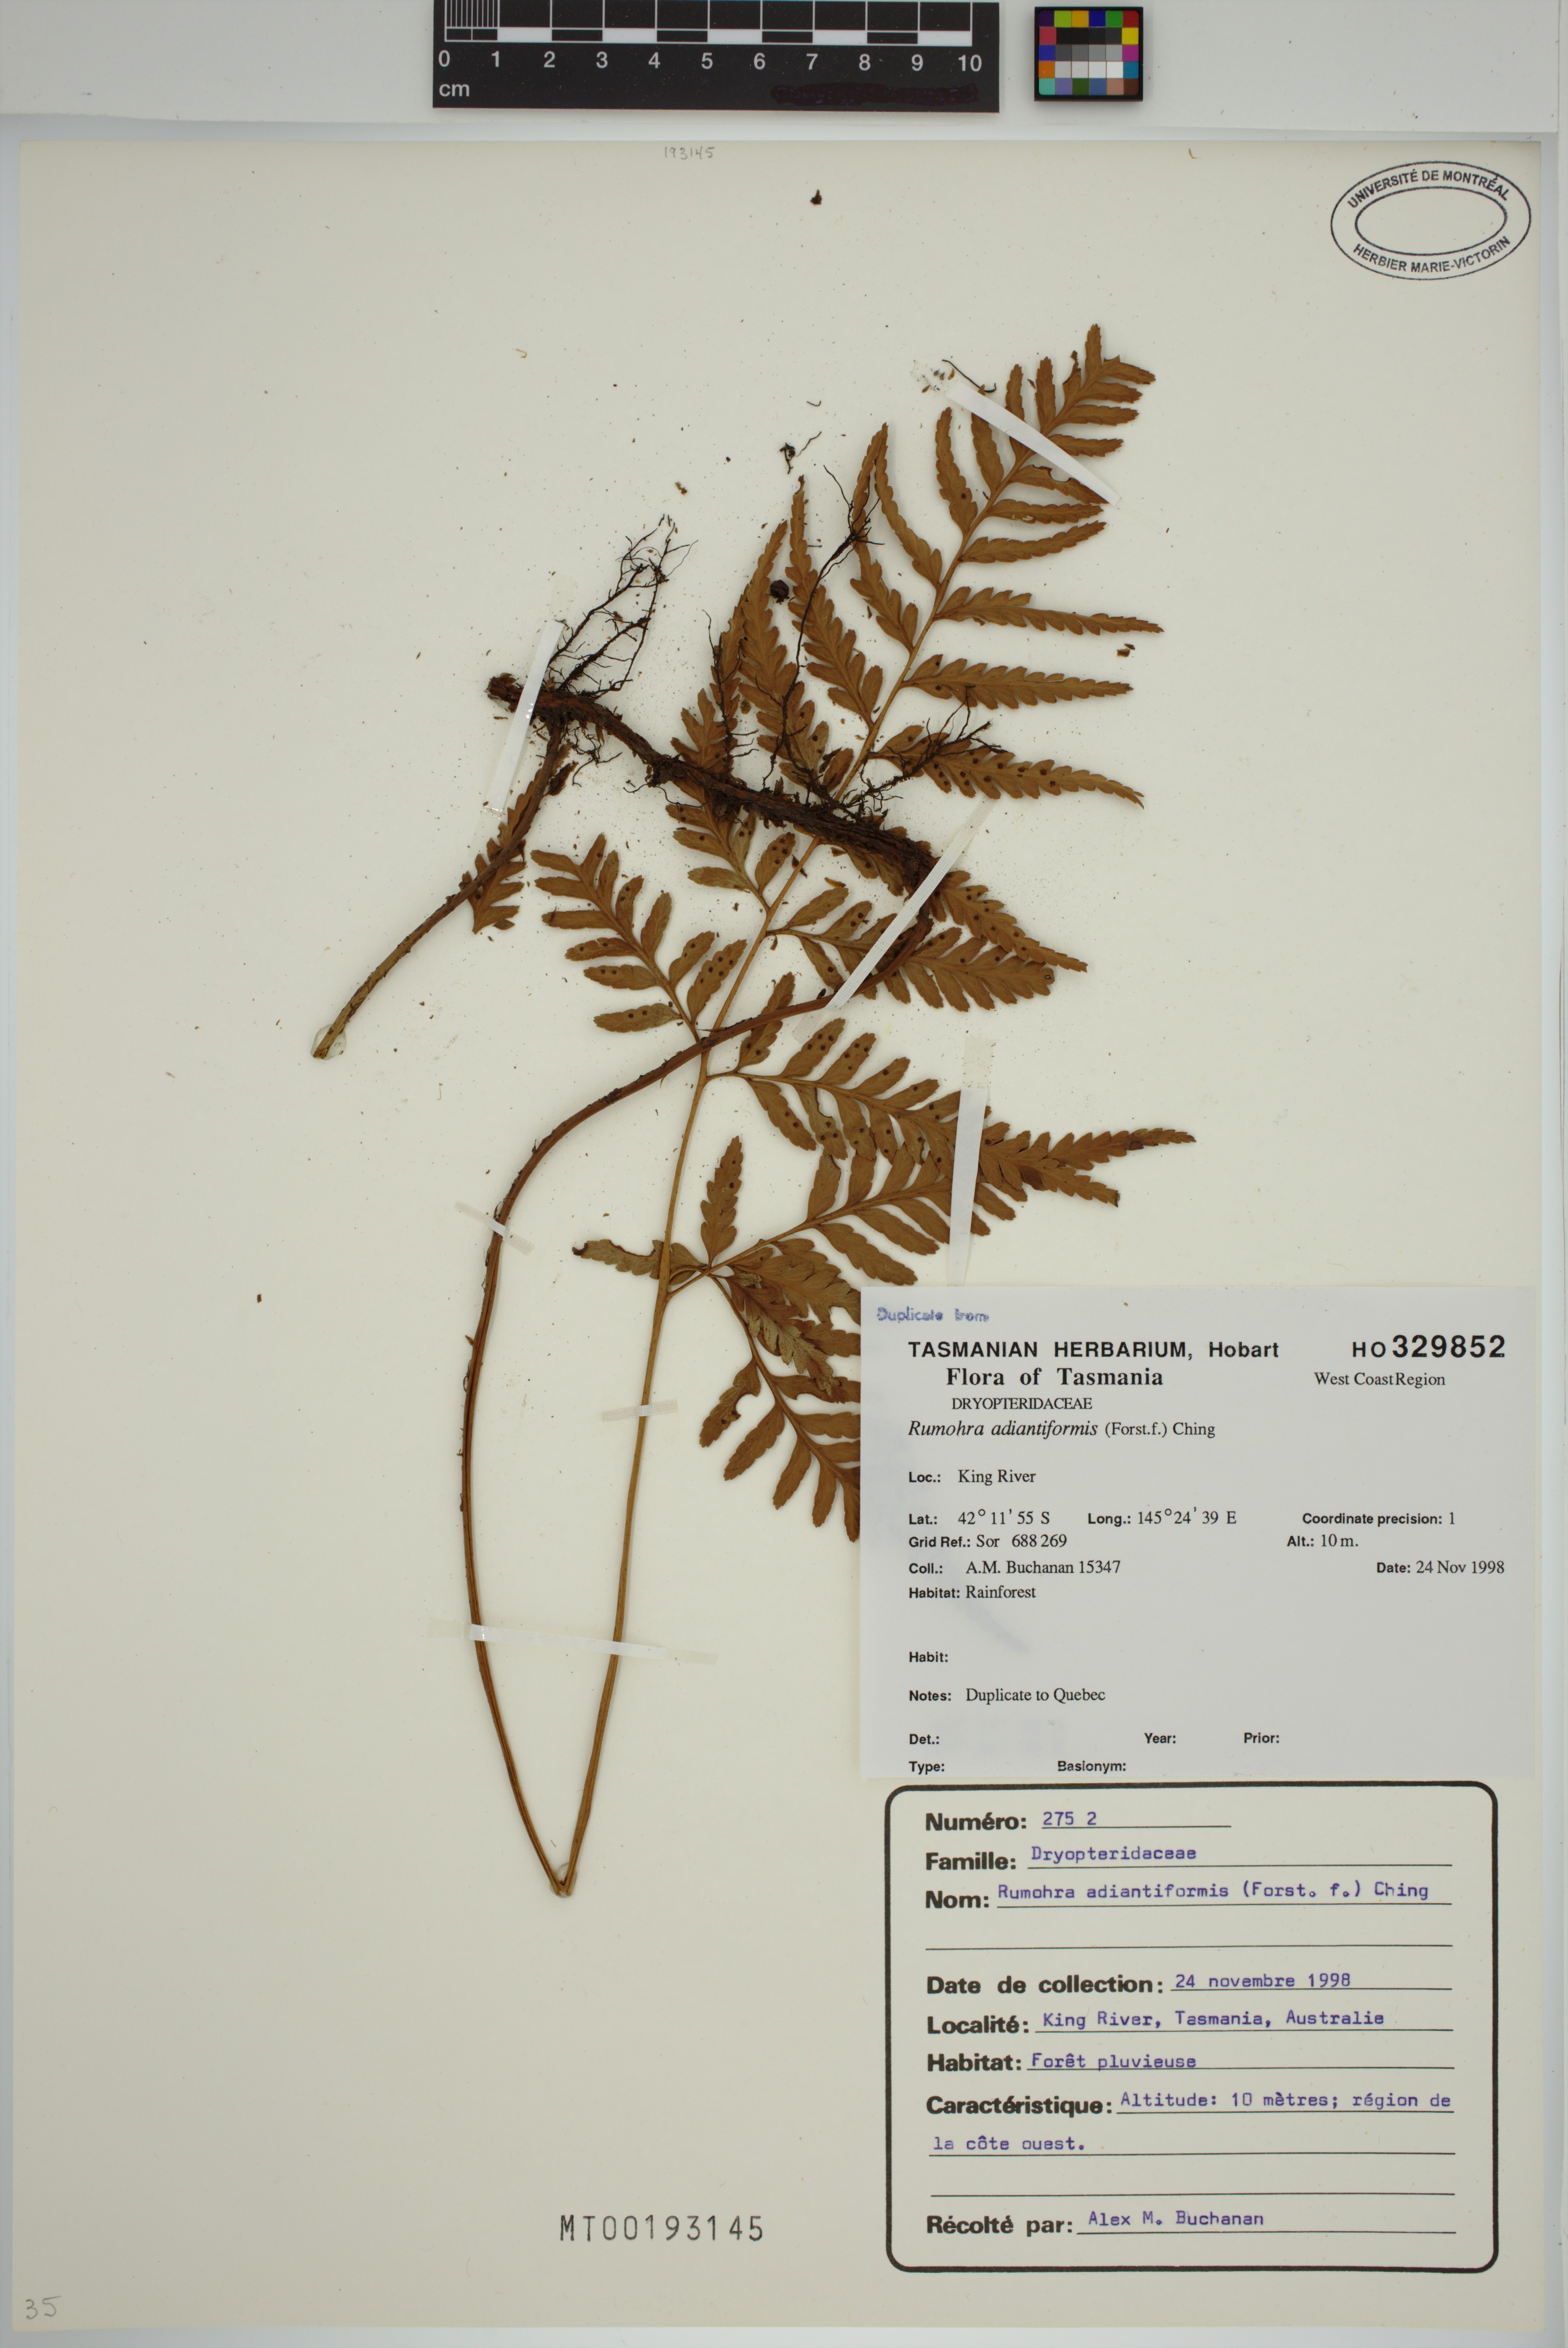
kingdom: Plantae
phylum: Tracheophyta
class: Polypodiopsida
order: Polypodiales
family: Dryopteridaceae
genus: Rumohra
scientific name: Rumohra adiantiformis
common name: Leather fern
